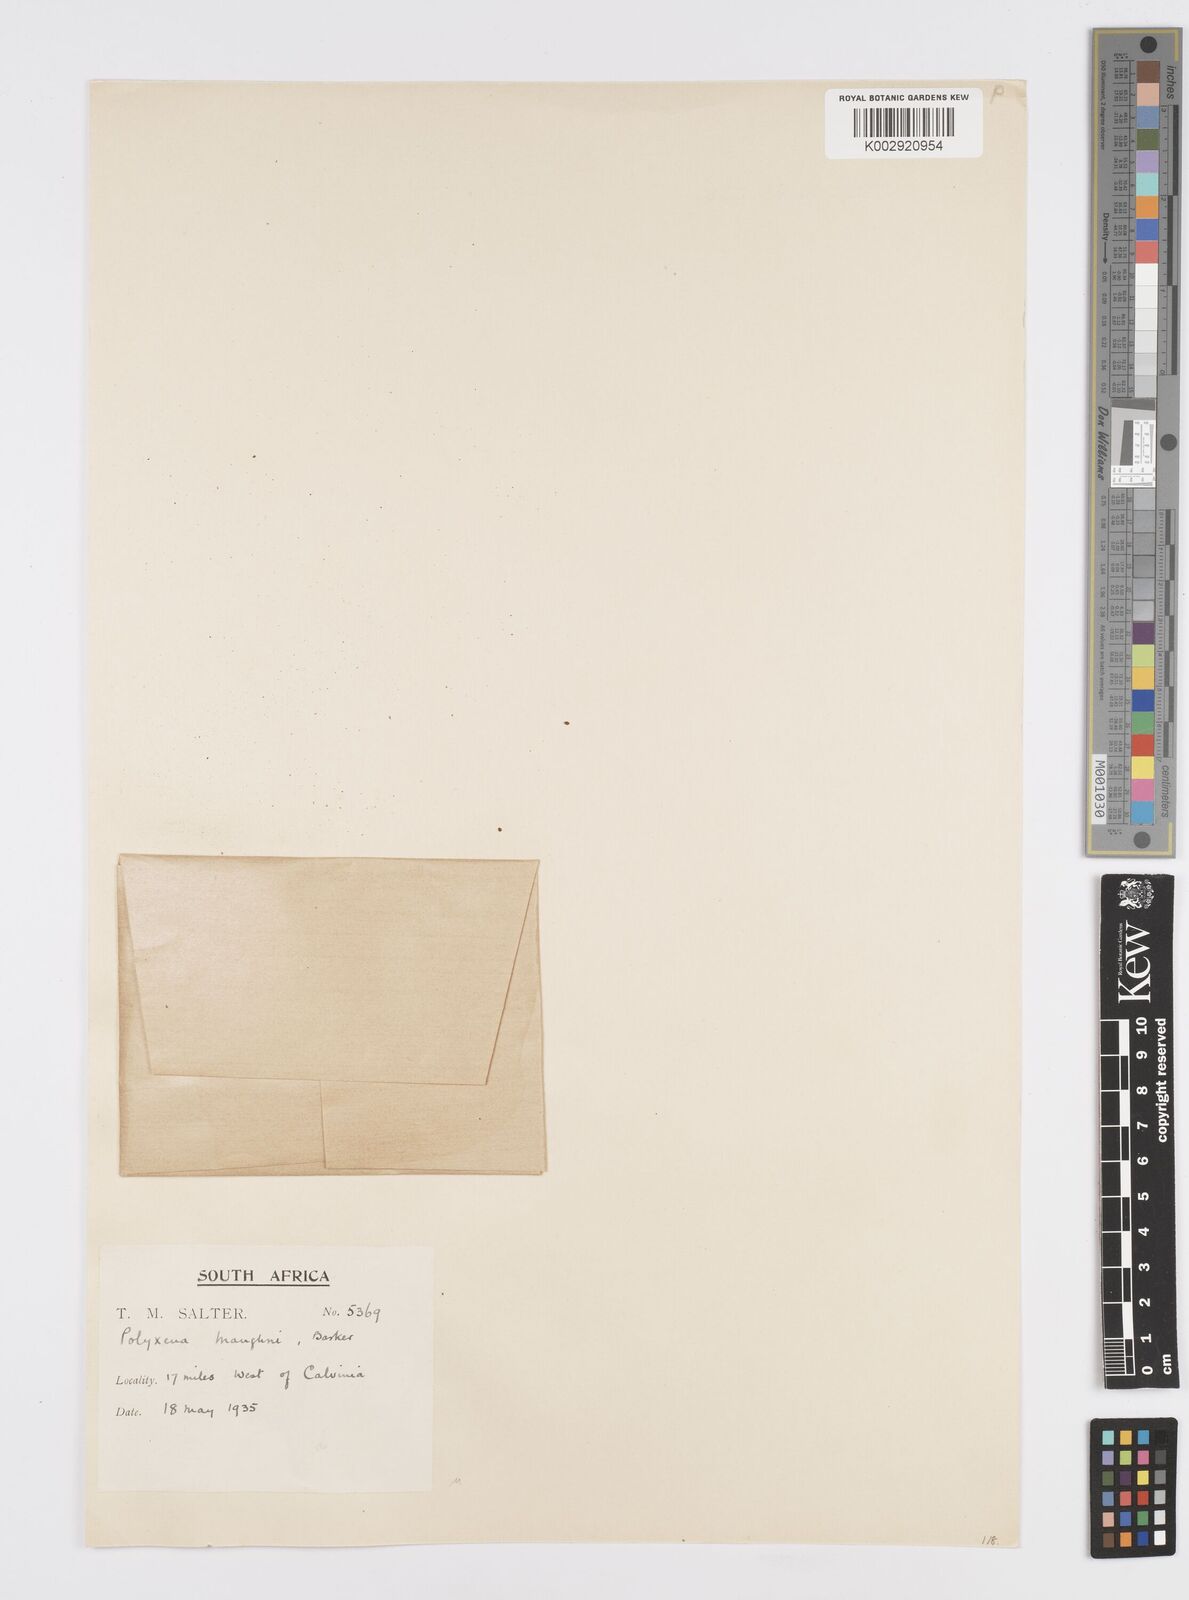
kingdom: Plantae
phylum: Tracheophyta
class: Liliopsida
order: Asparagales
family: Asparagaceae
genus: Lachenalia
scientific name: Lachenalia ensifolia
